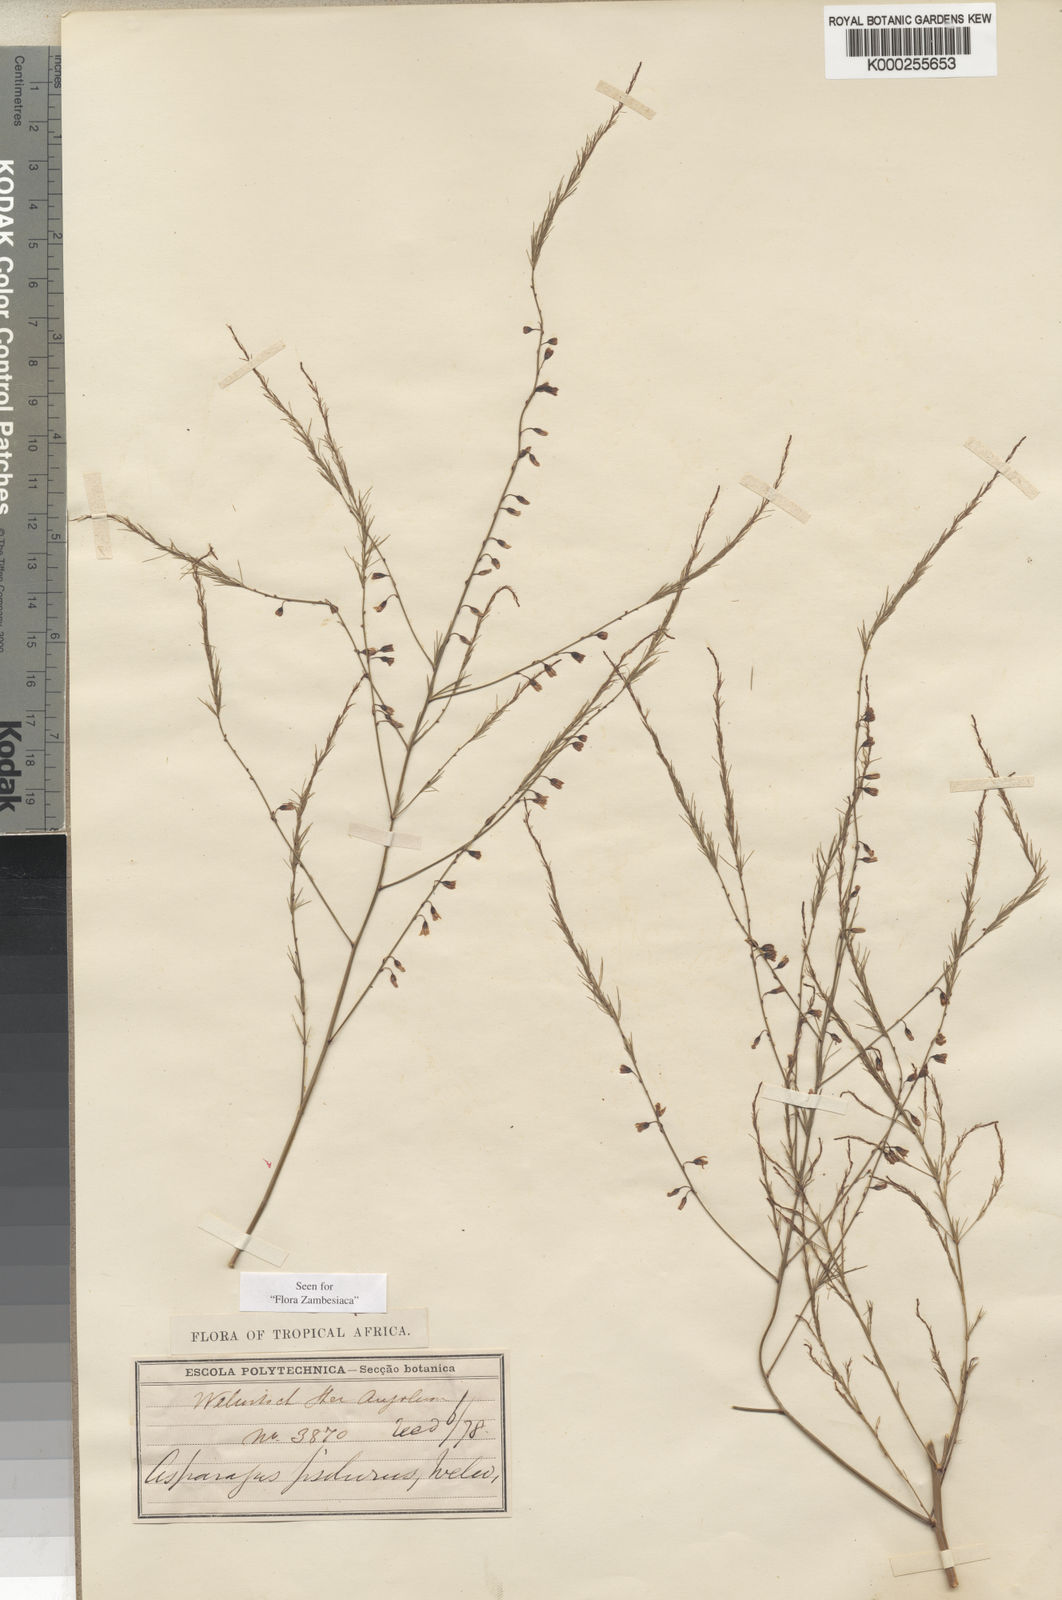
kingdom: Plantae
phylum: Tracheophyta
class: Liliopsida
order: Asparagales
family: Asparagaceae
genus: Asparagus
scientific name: Asparagus psilurus
